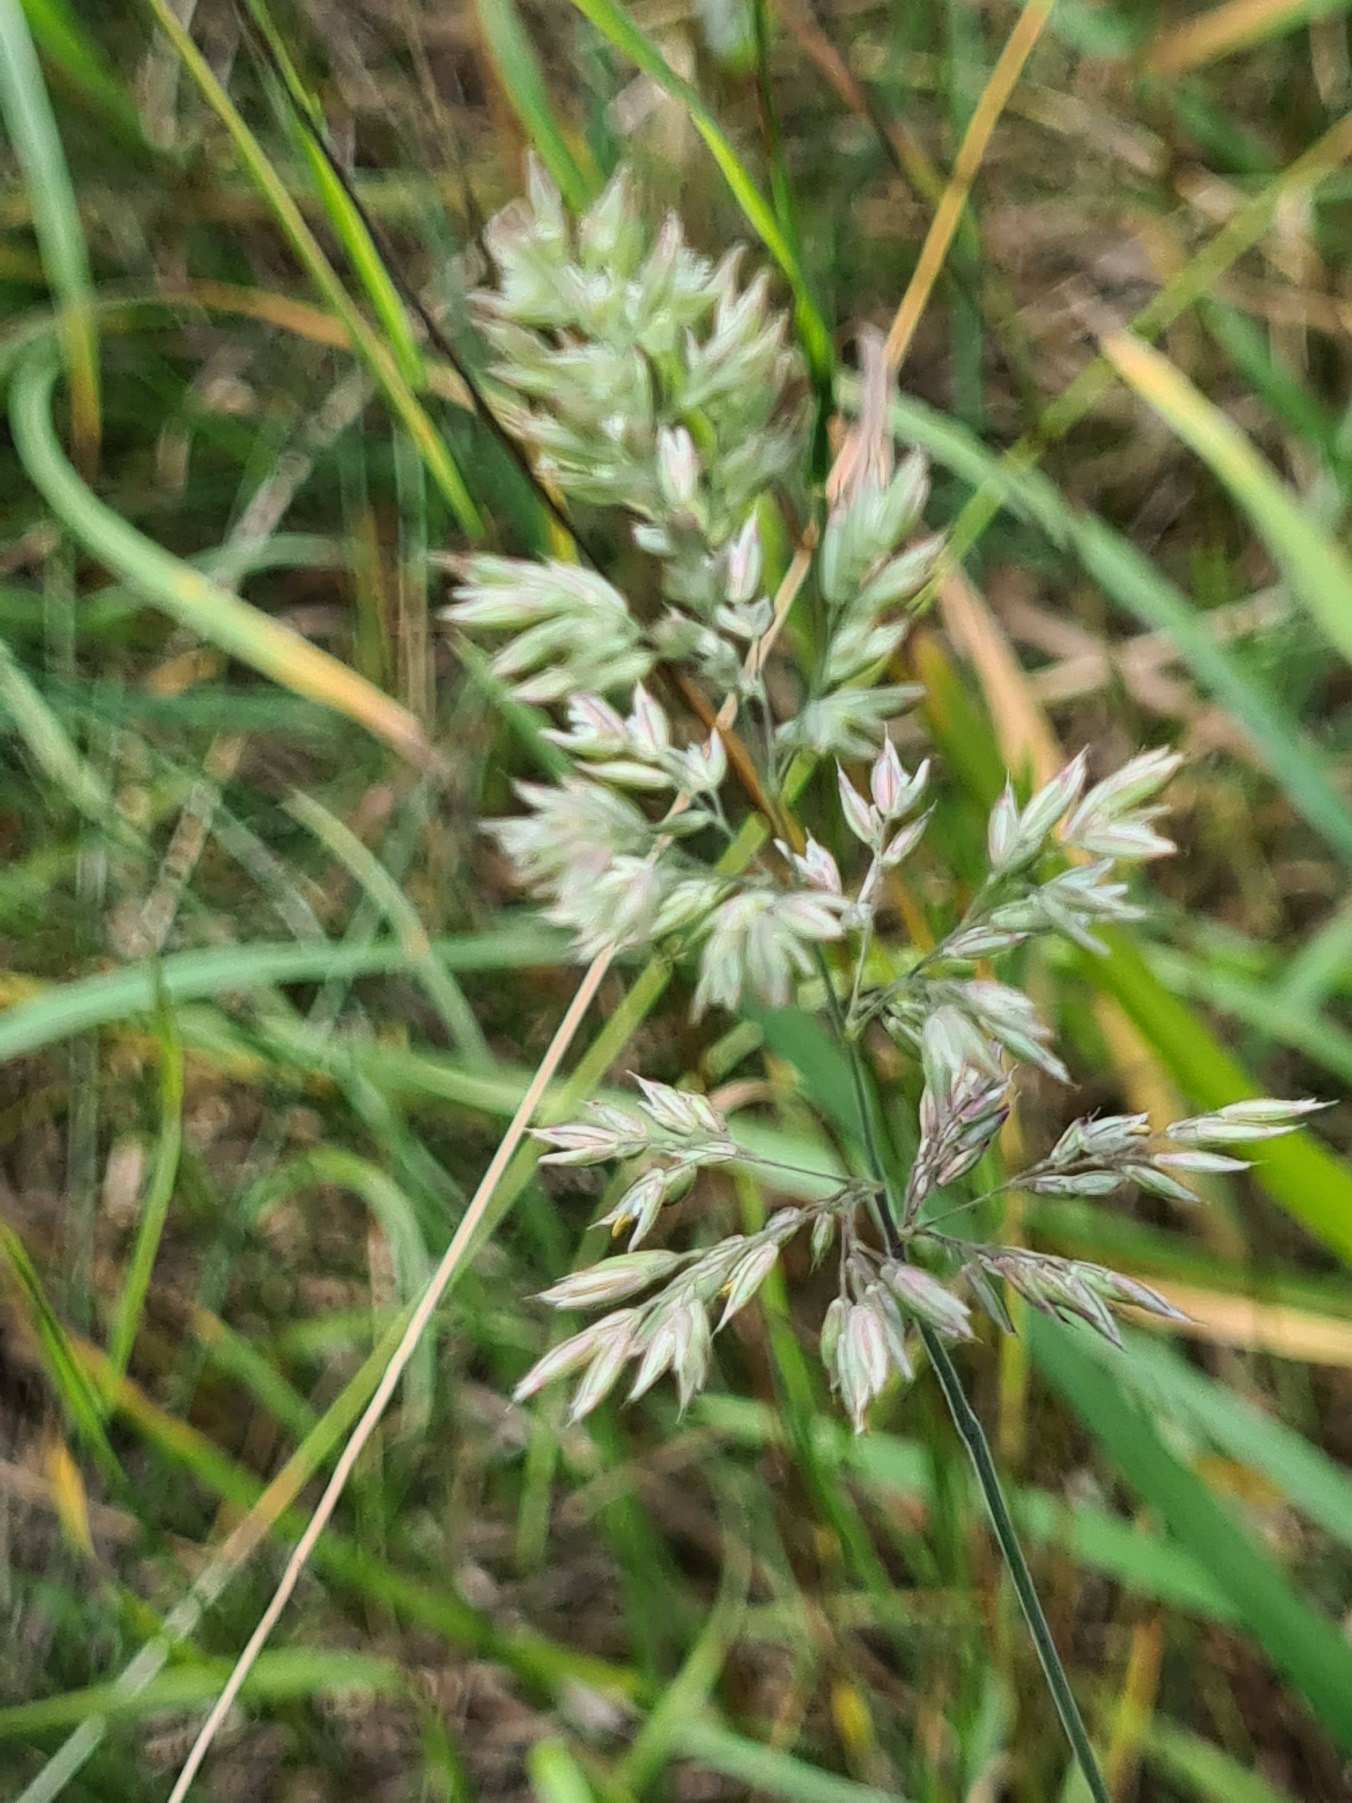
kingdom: Plantae
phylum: Tracheophyta
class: Liliopsida
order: Poales
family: Poaceae
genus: Holcus
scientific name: Holcus lanatus
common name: Fløjlsgræs
